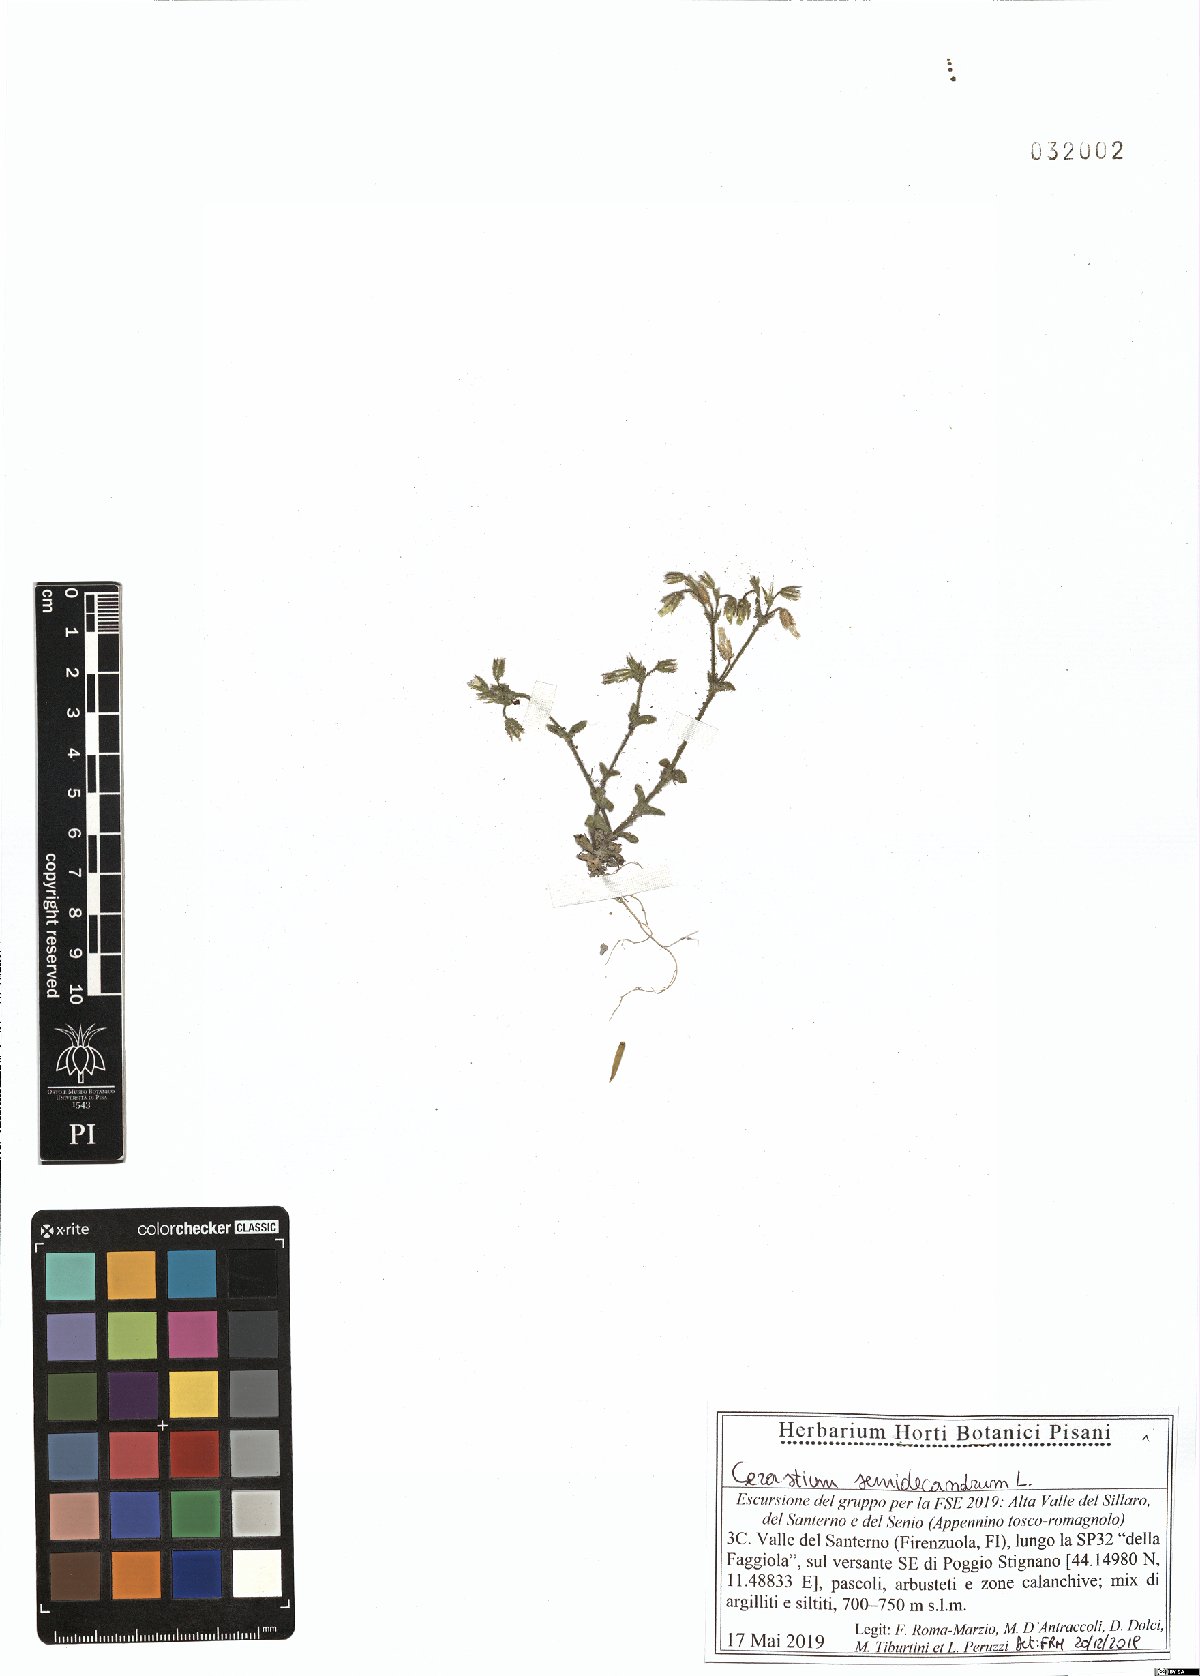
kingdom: Plantae
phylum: Tracheophyta
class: Magnoliopsida
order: Caryophyllales
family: Caryophyllaceae
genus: Cerastium
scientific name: Cerastium semidecandrum
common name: Little mouse-ear
